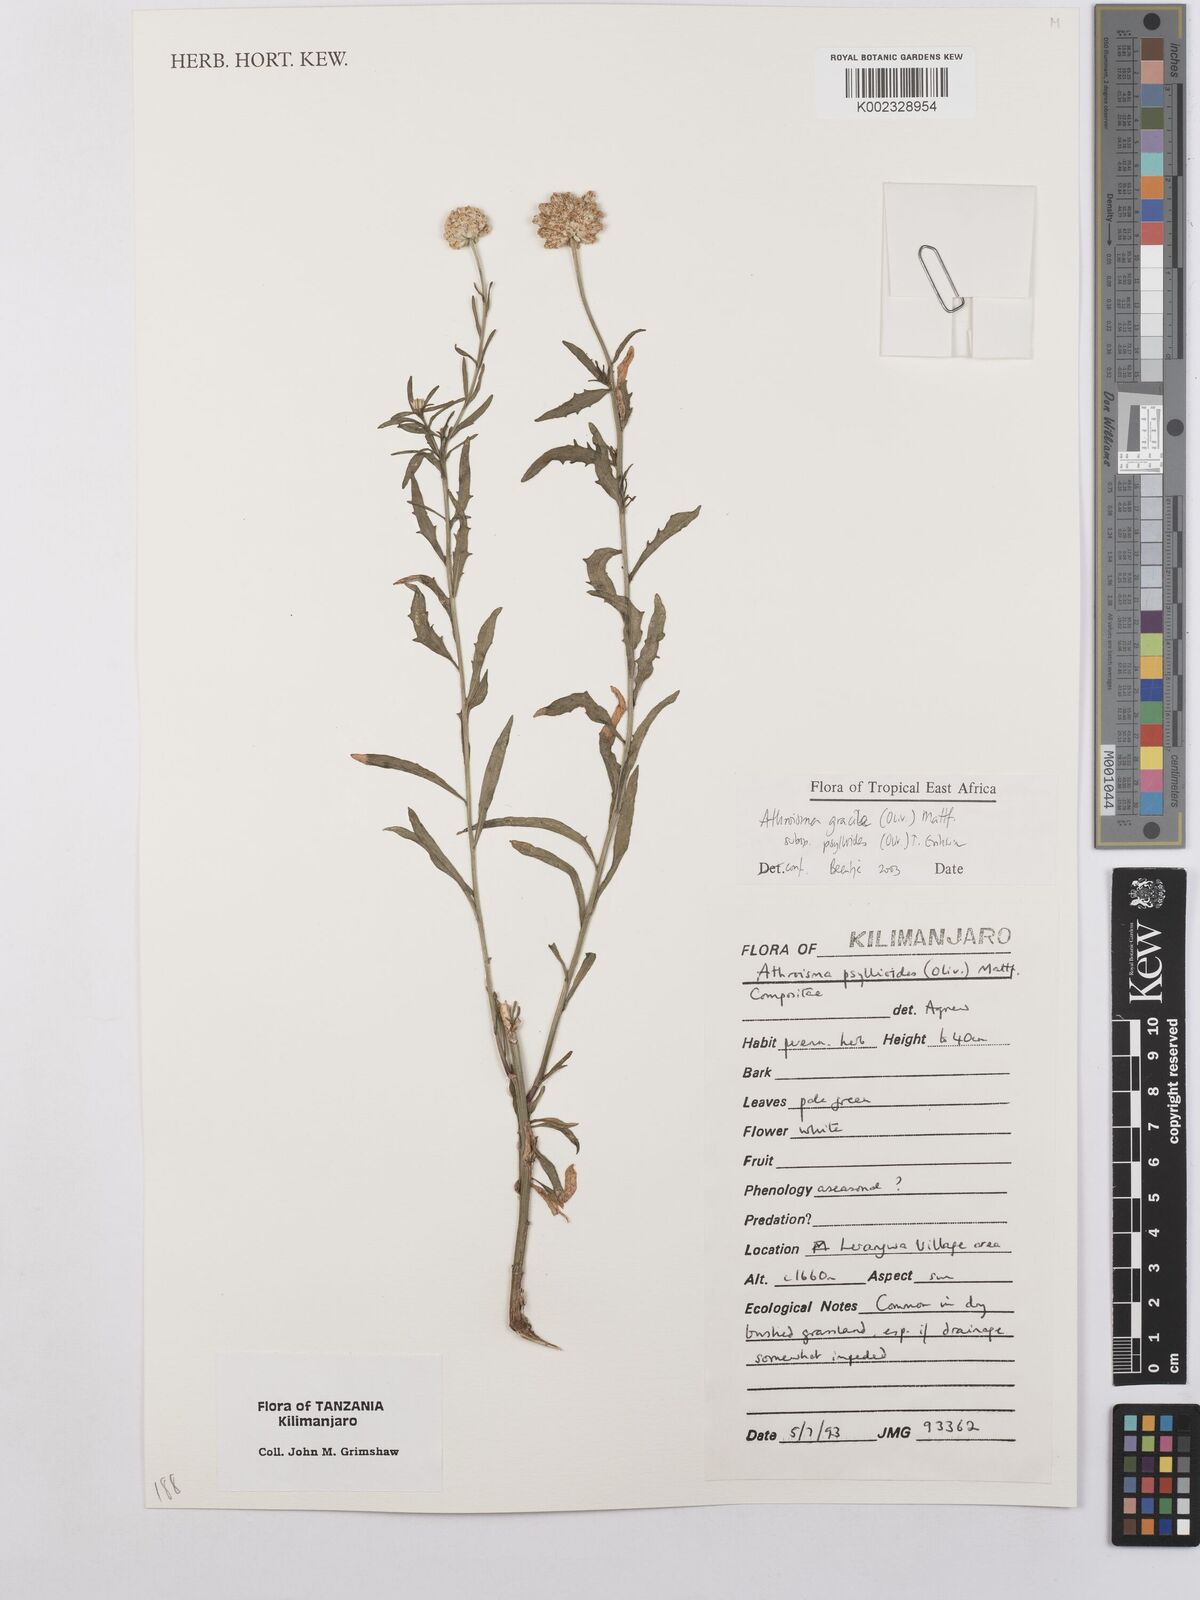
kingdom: Plantae
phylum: Tracheophyta
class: Magnoliopsida
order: Asterales
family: Asteraceae
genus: Athroisma
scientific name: Athroisma gracile
